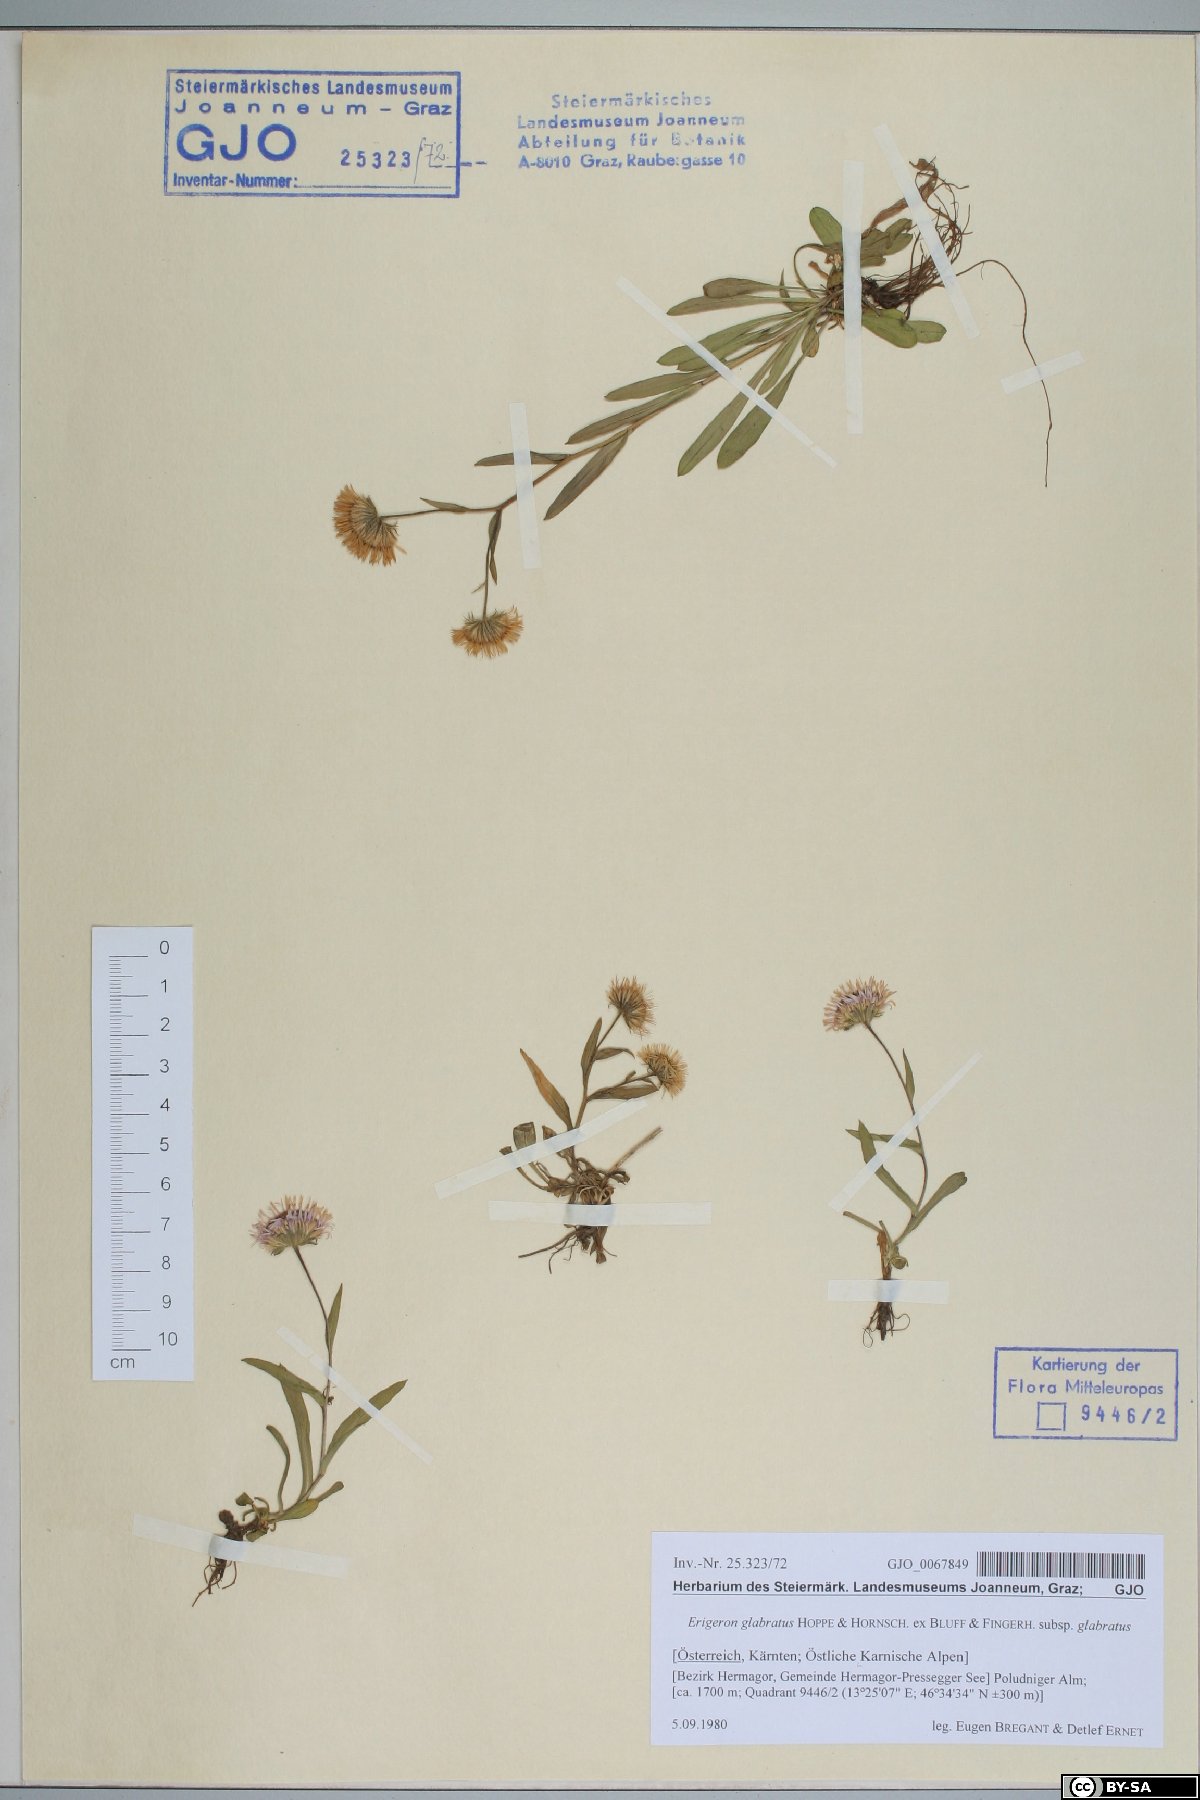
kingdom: Plantae
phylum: Tracheophyta
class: Magnoliopsida
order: Asterales
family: Asteraceae
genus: Erigeron
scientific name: Erigeron glabratus
